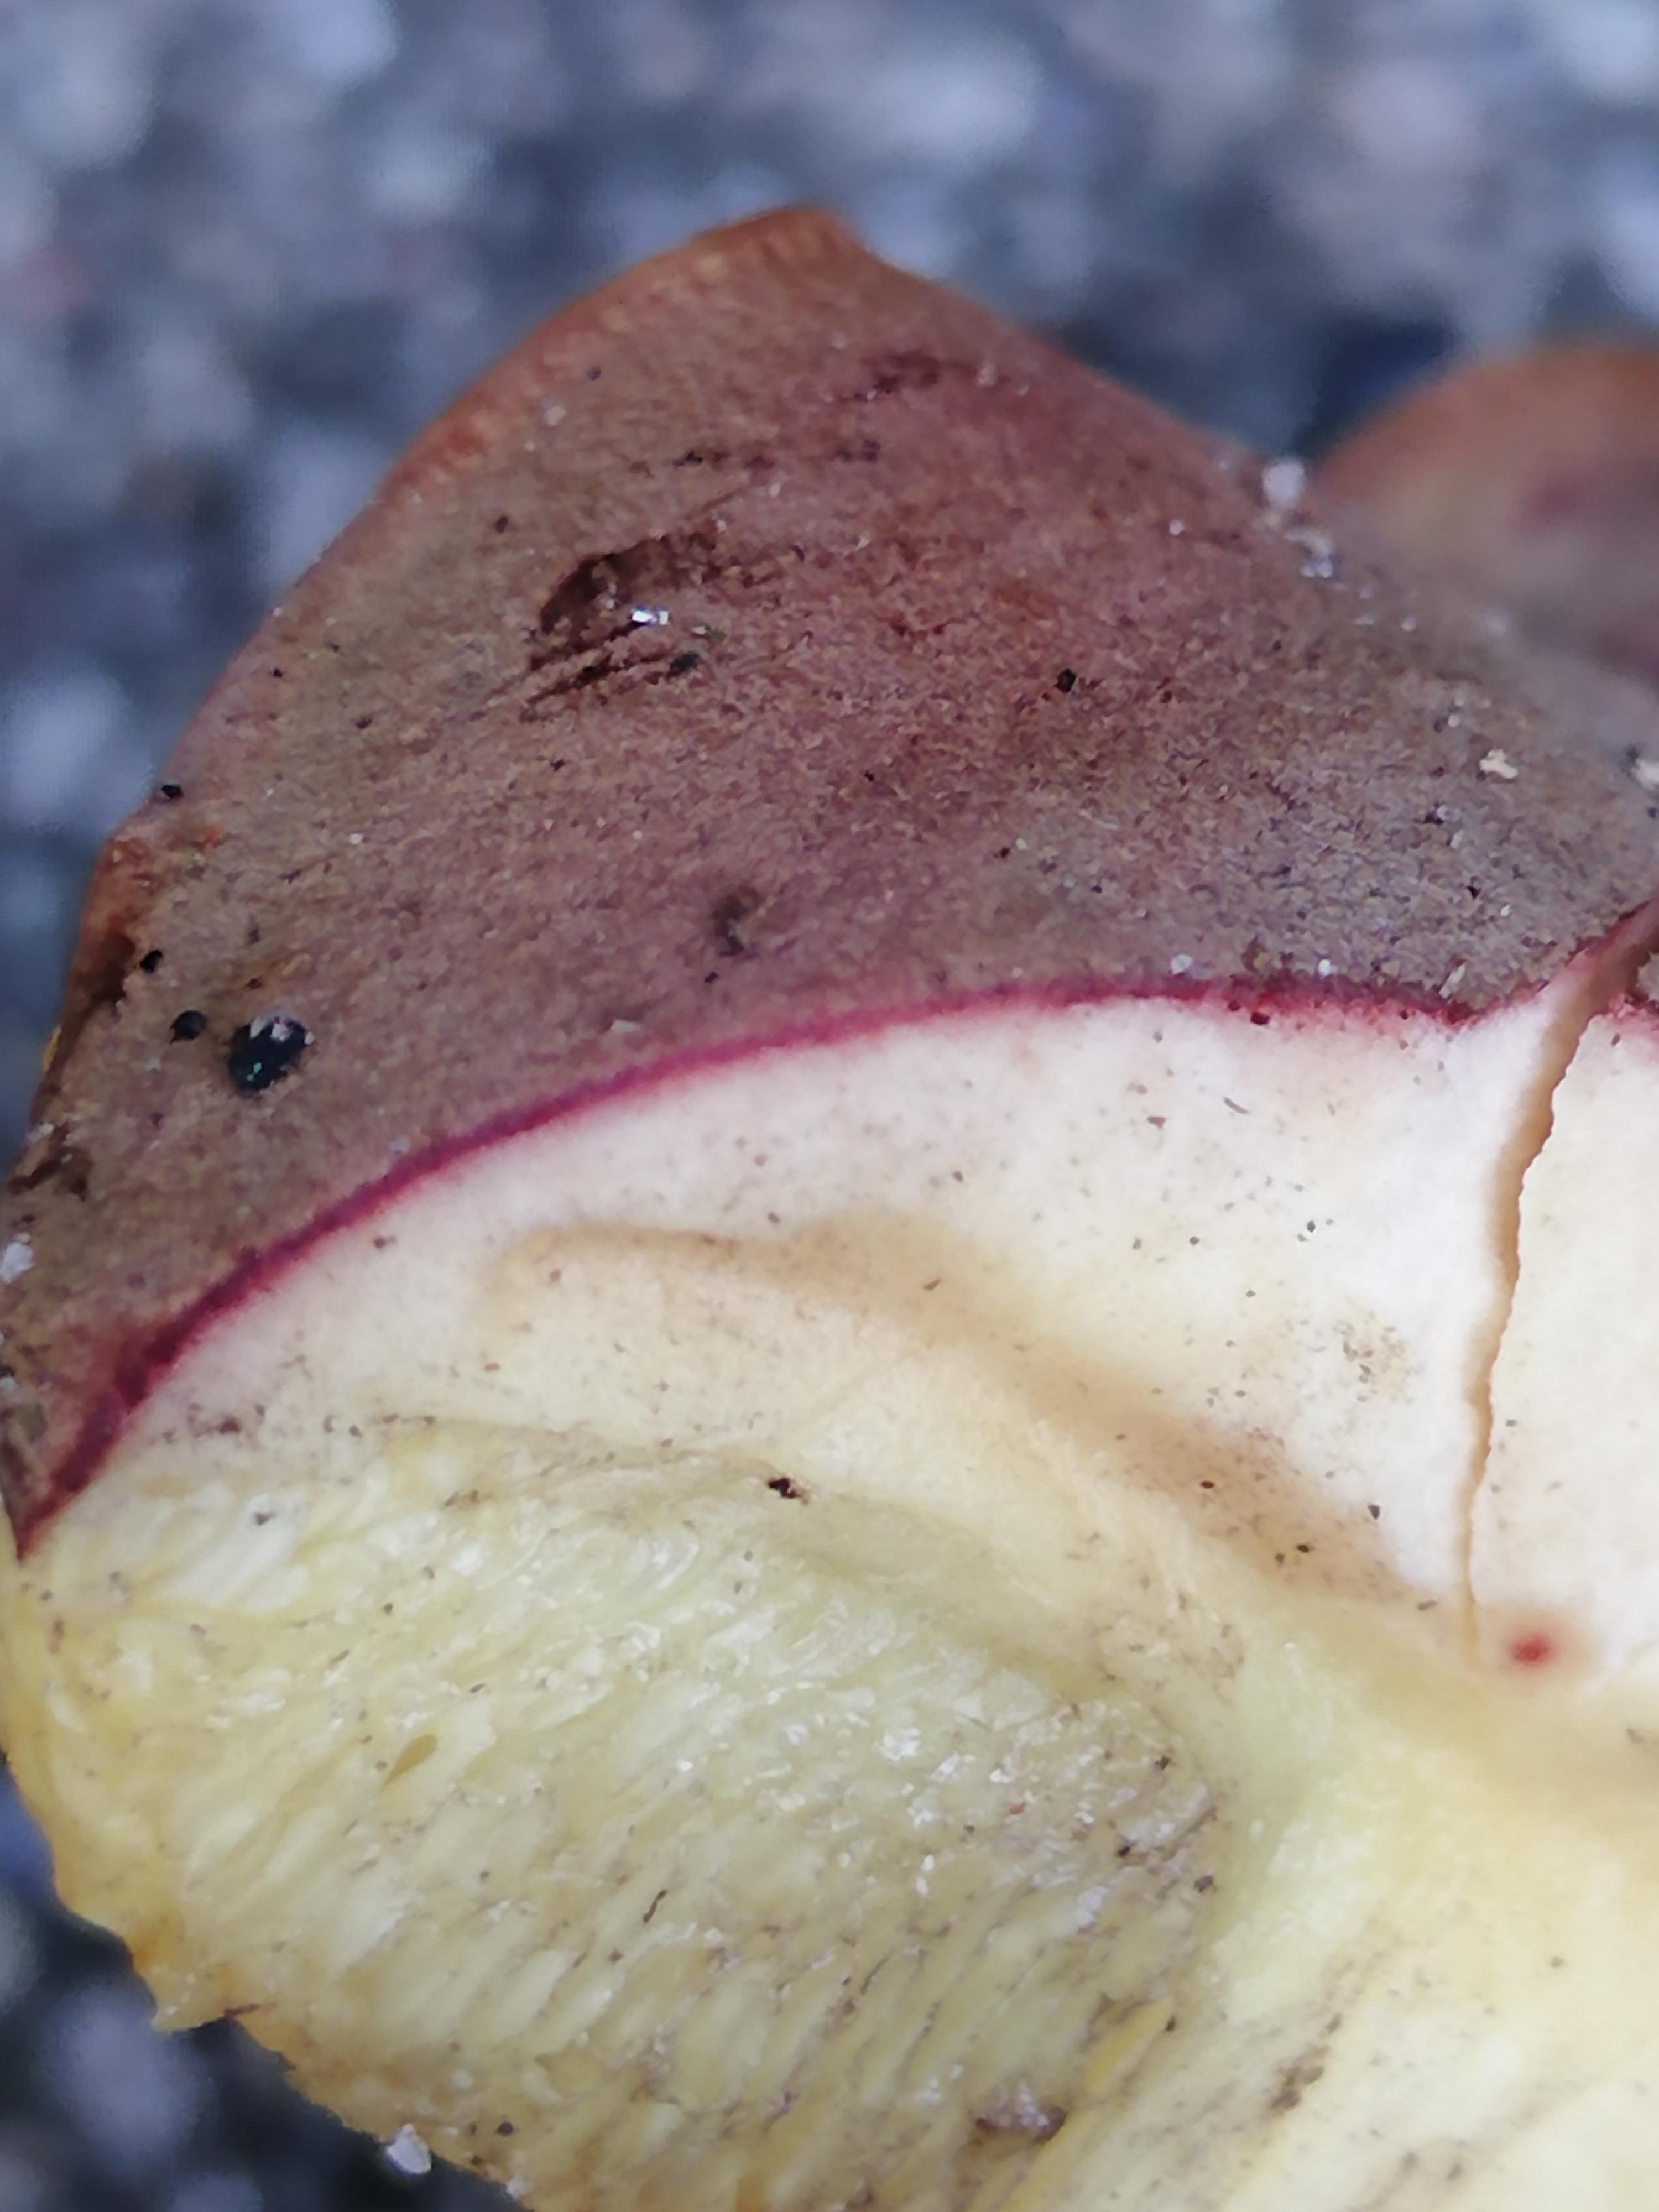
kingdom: Fungi
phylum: Basidiomycota
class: Agaricomycetes
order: Boletales
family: Boletaceae
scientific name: Boletaceae
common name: rørhatfamilien
